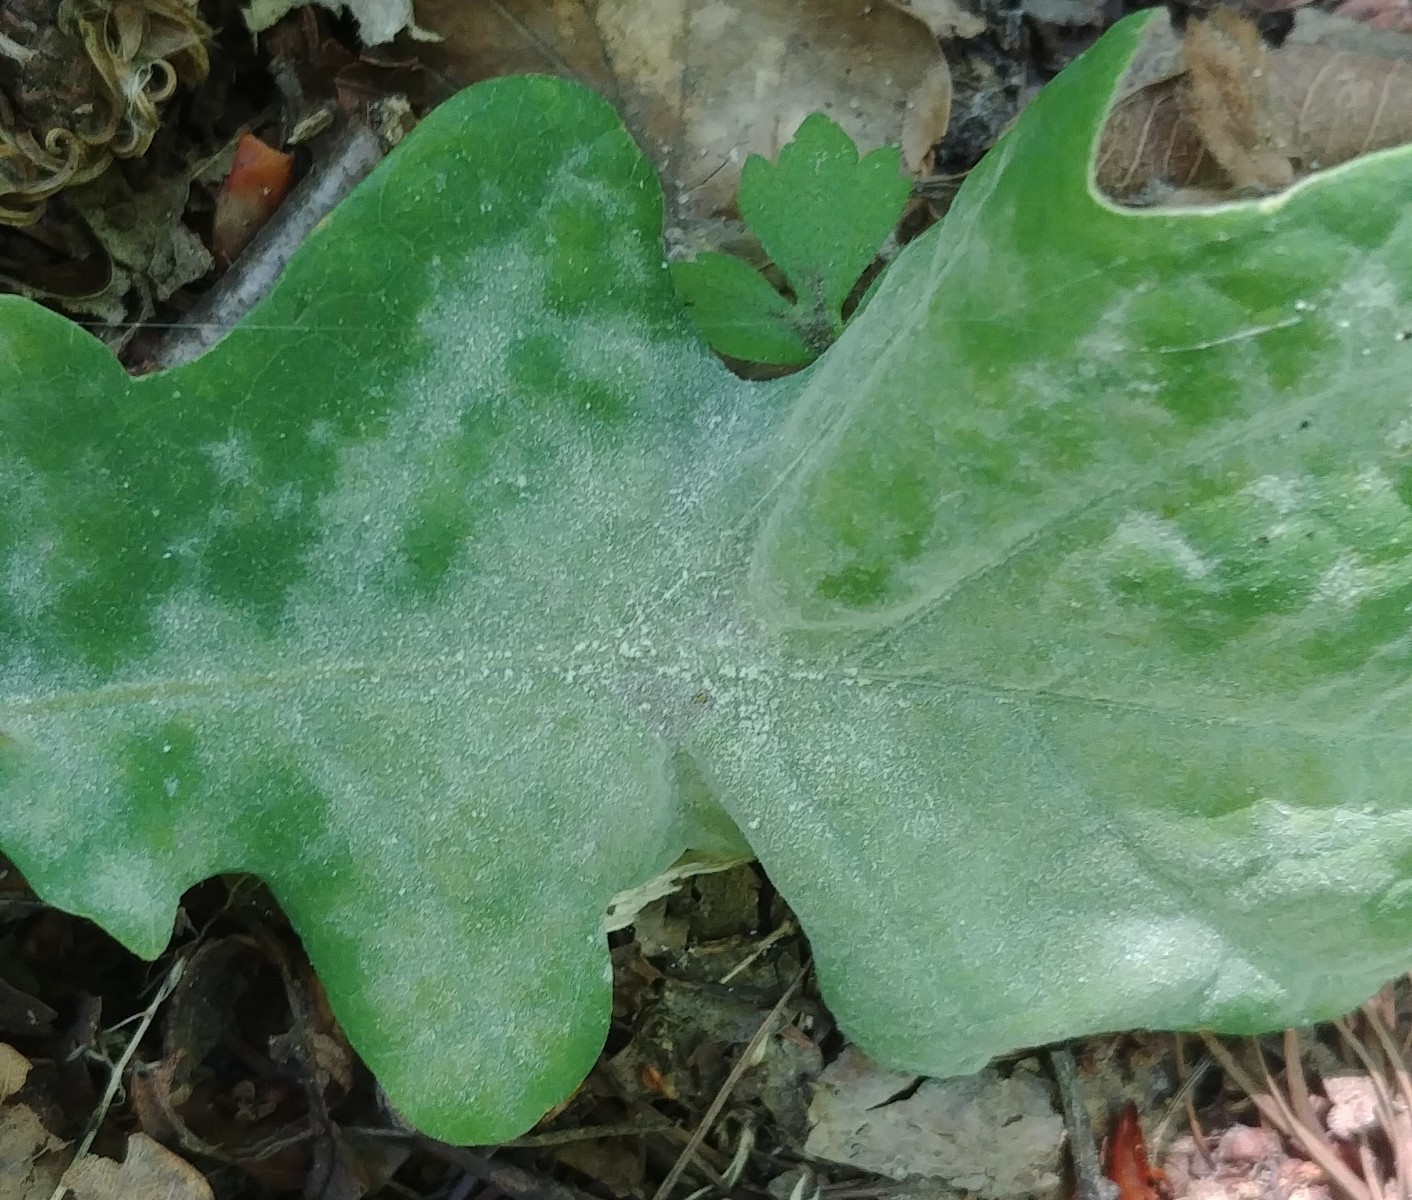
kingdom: Fungi
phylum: Ascomycota
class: Leotiomycetes
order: Helotiales
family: Erysiphaceae
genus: Erysiphe
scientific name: Erysiphe alphitoides
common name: ege-meldug
